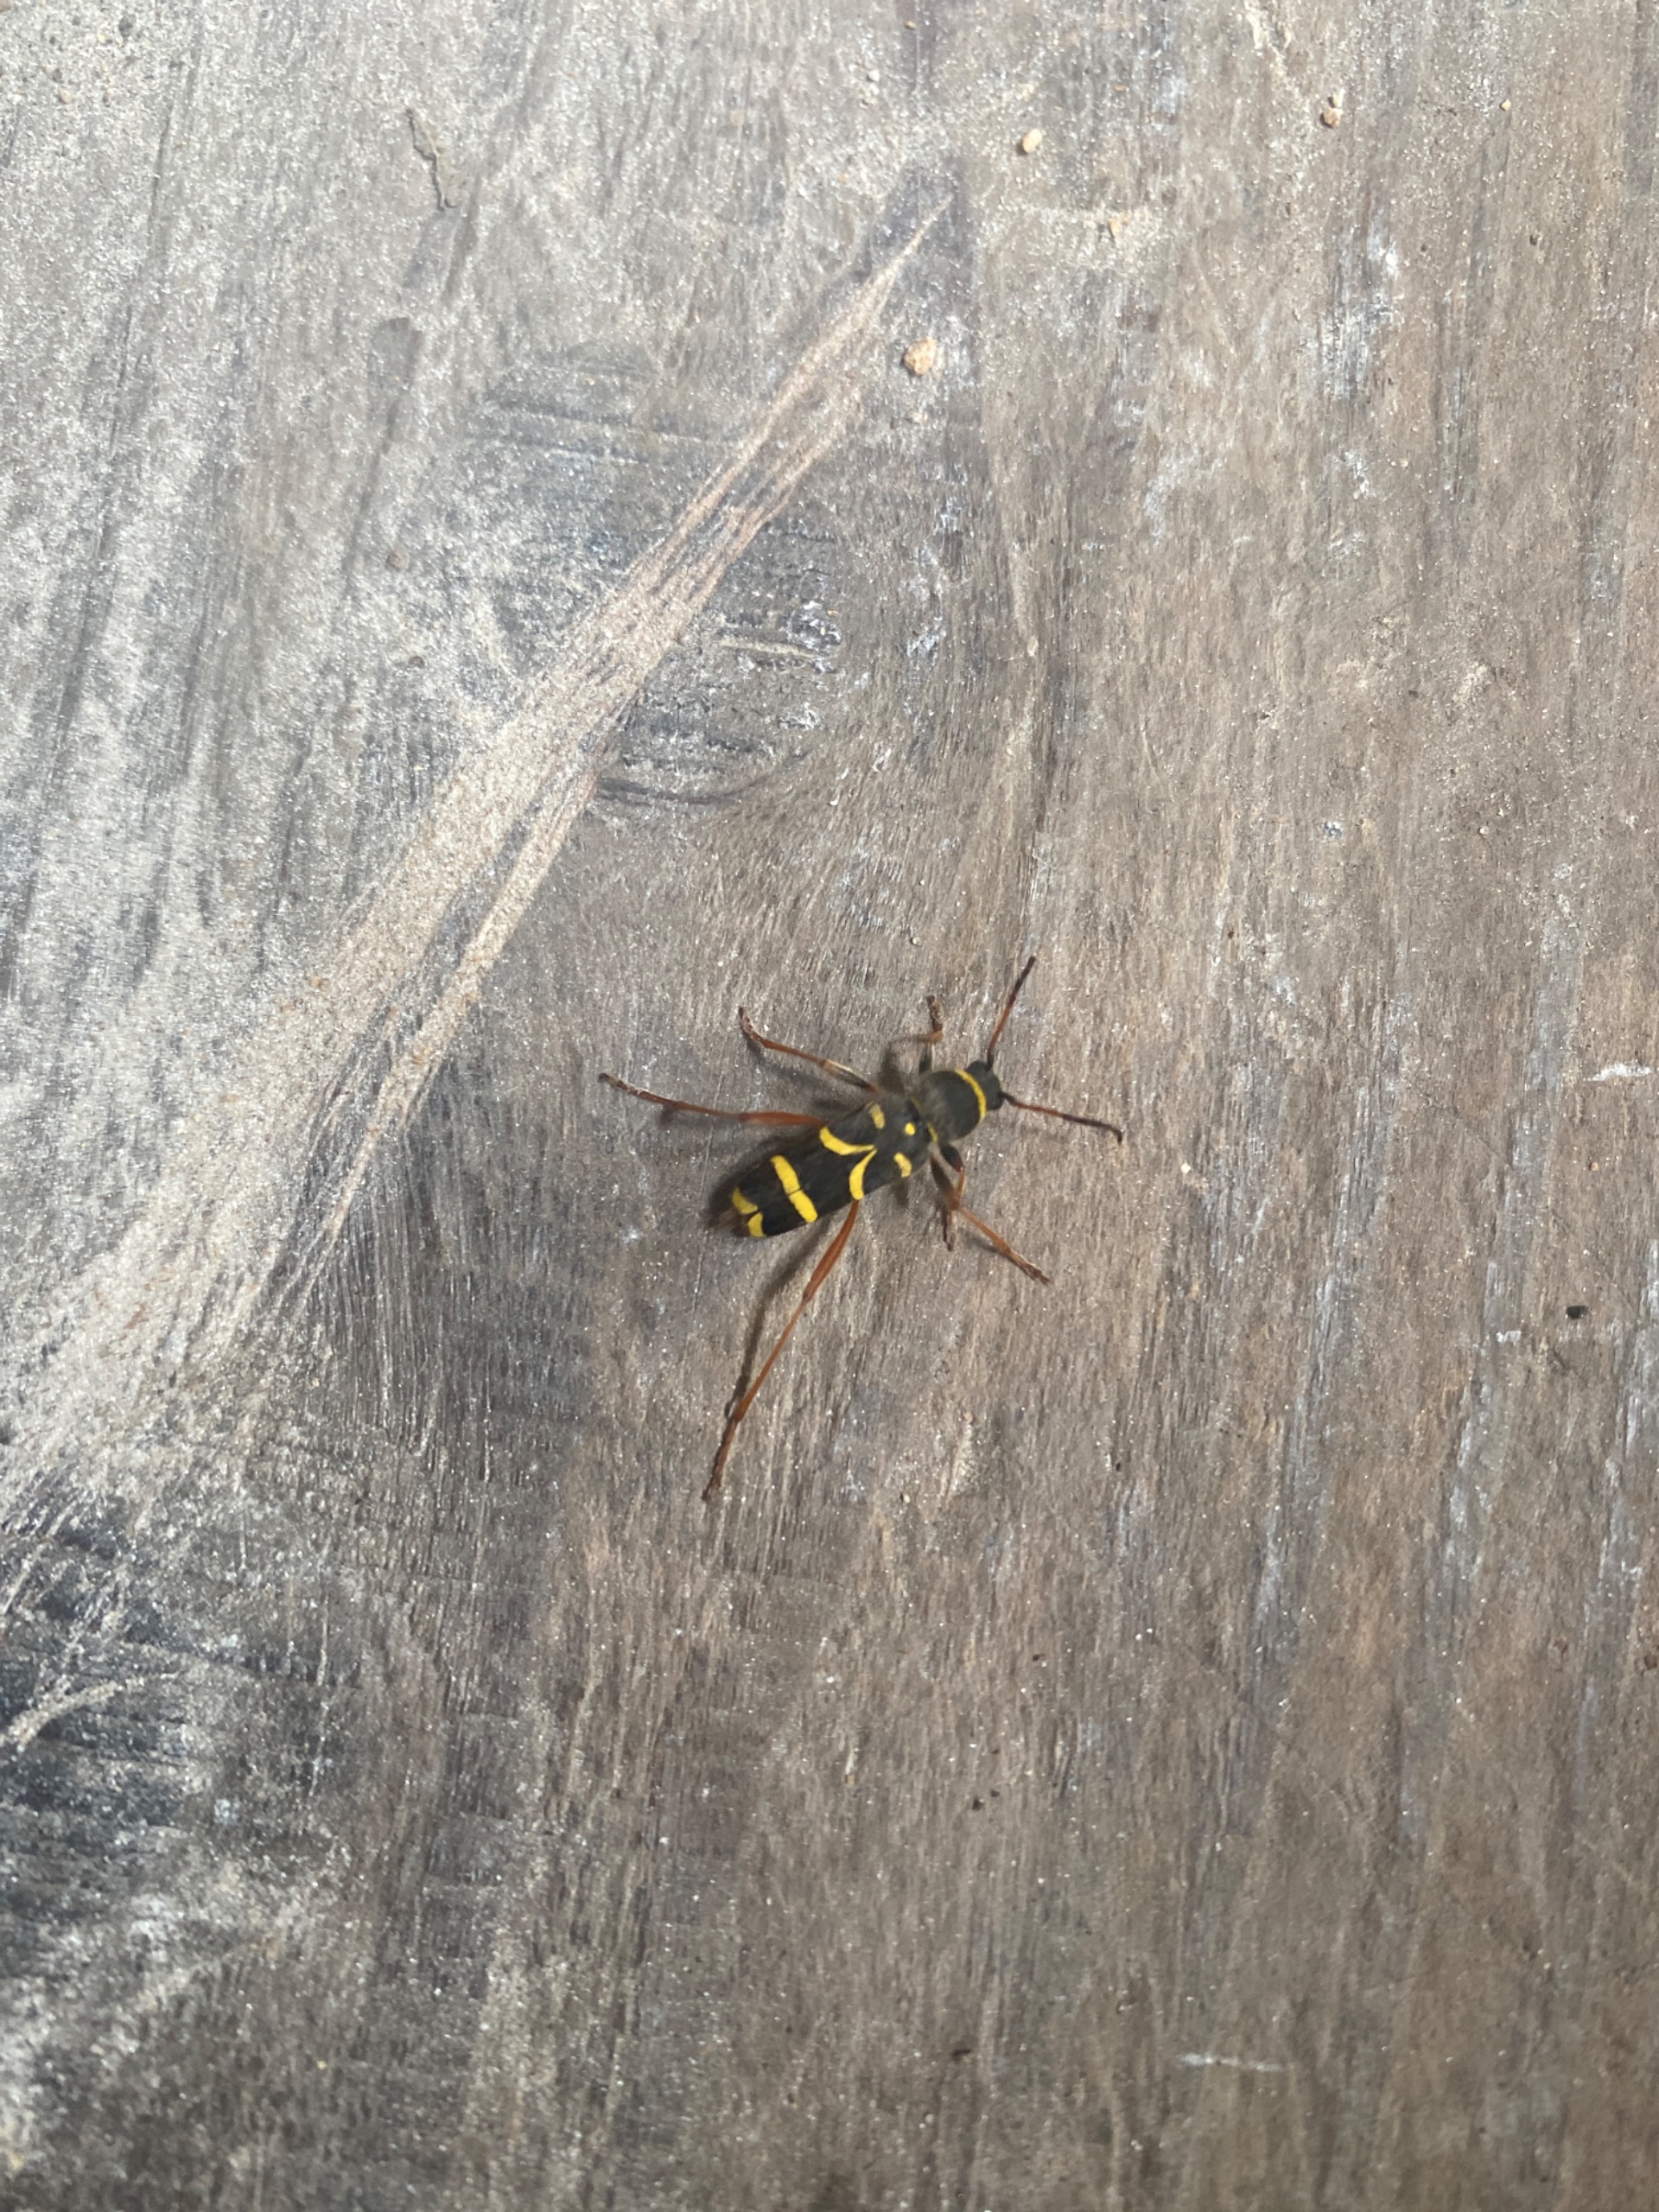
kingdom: Animalia
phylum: Arthropoda
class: Insecta
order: Coleoptera
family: Cerambycidae
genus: Clytus
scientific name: Clytus arietis
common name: Lille hvepsebuk
